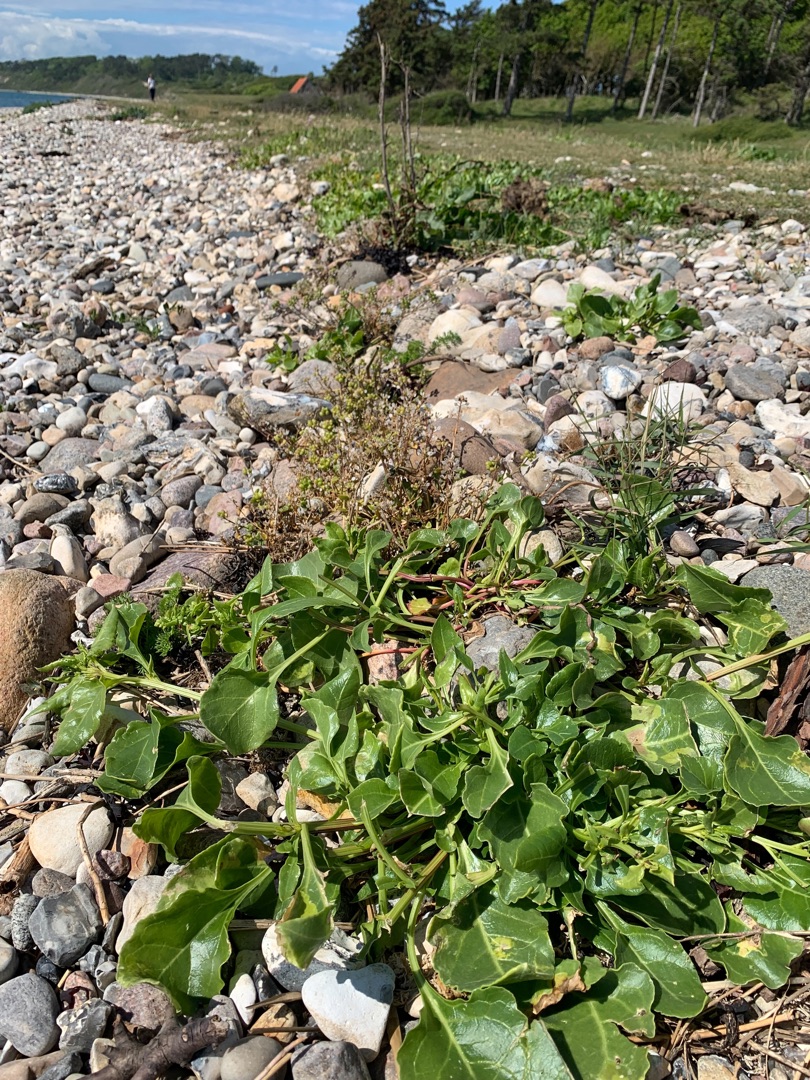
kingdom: Plantae
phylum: Tracheophyta
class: Magnoliopsida
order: Caryophyllales
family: Amaranthaceae
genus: Beta
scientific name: Beta maritima
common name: Strand-bede
